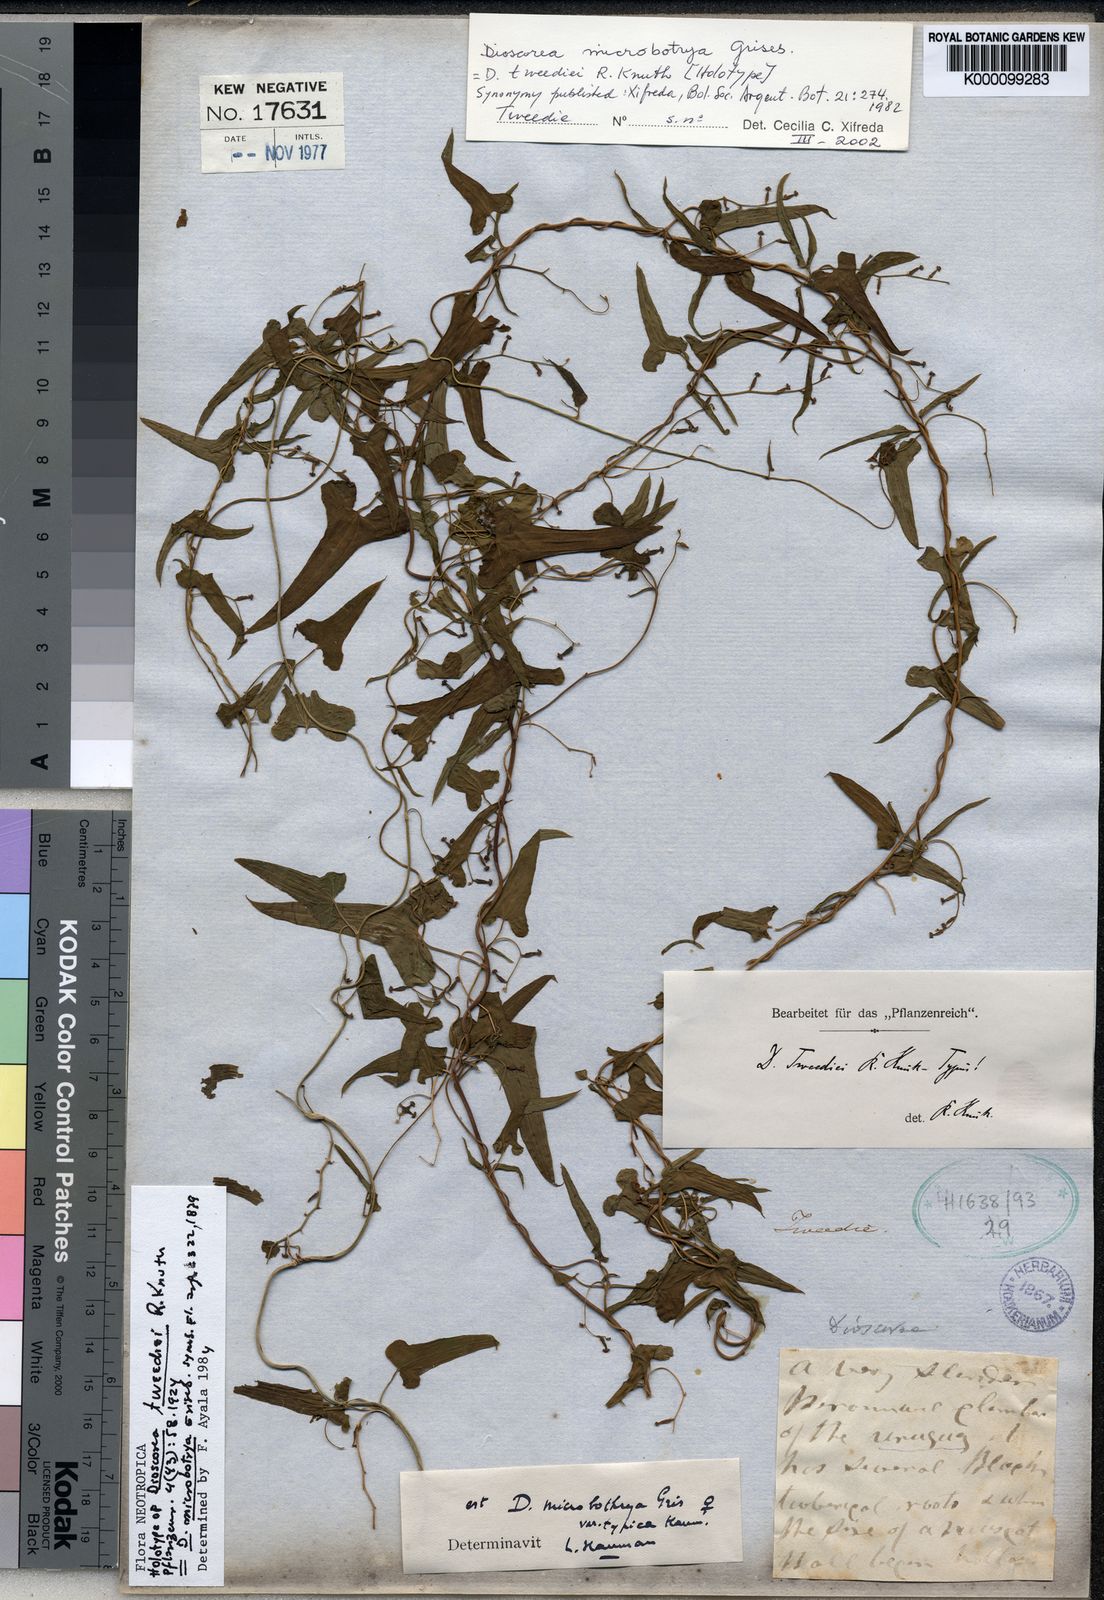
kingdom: Plantae
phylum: Tracheophyta
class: Liliopsida
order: Dioscoreales
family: Dioscoreaceae
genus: Dioscorea
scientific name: Dioscorea microbotrya
